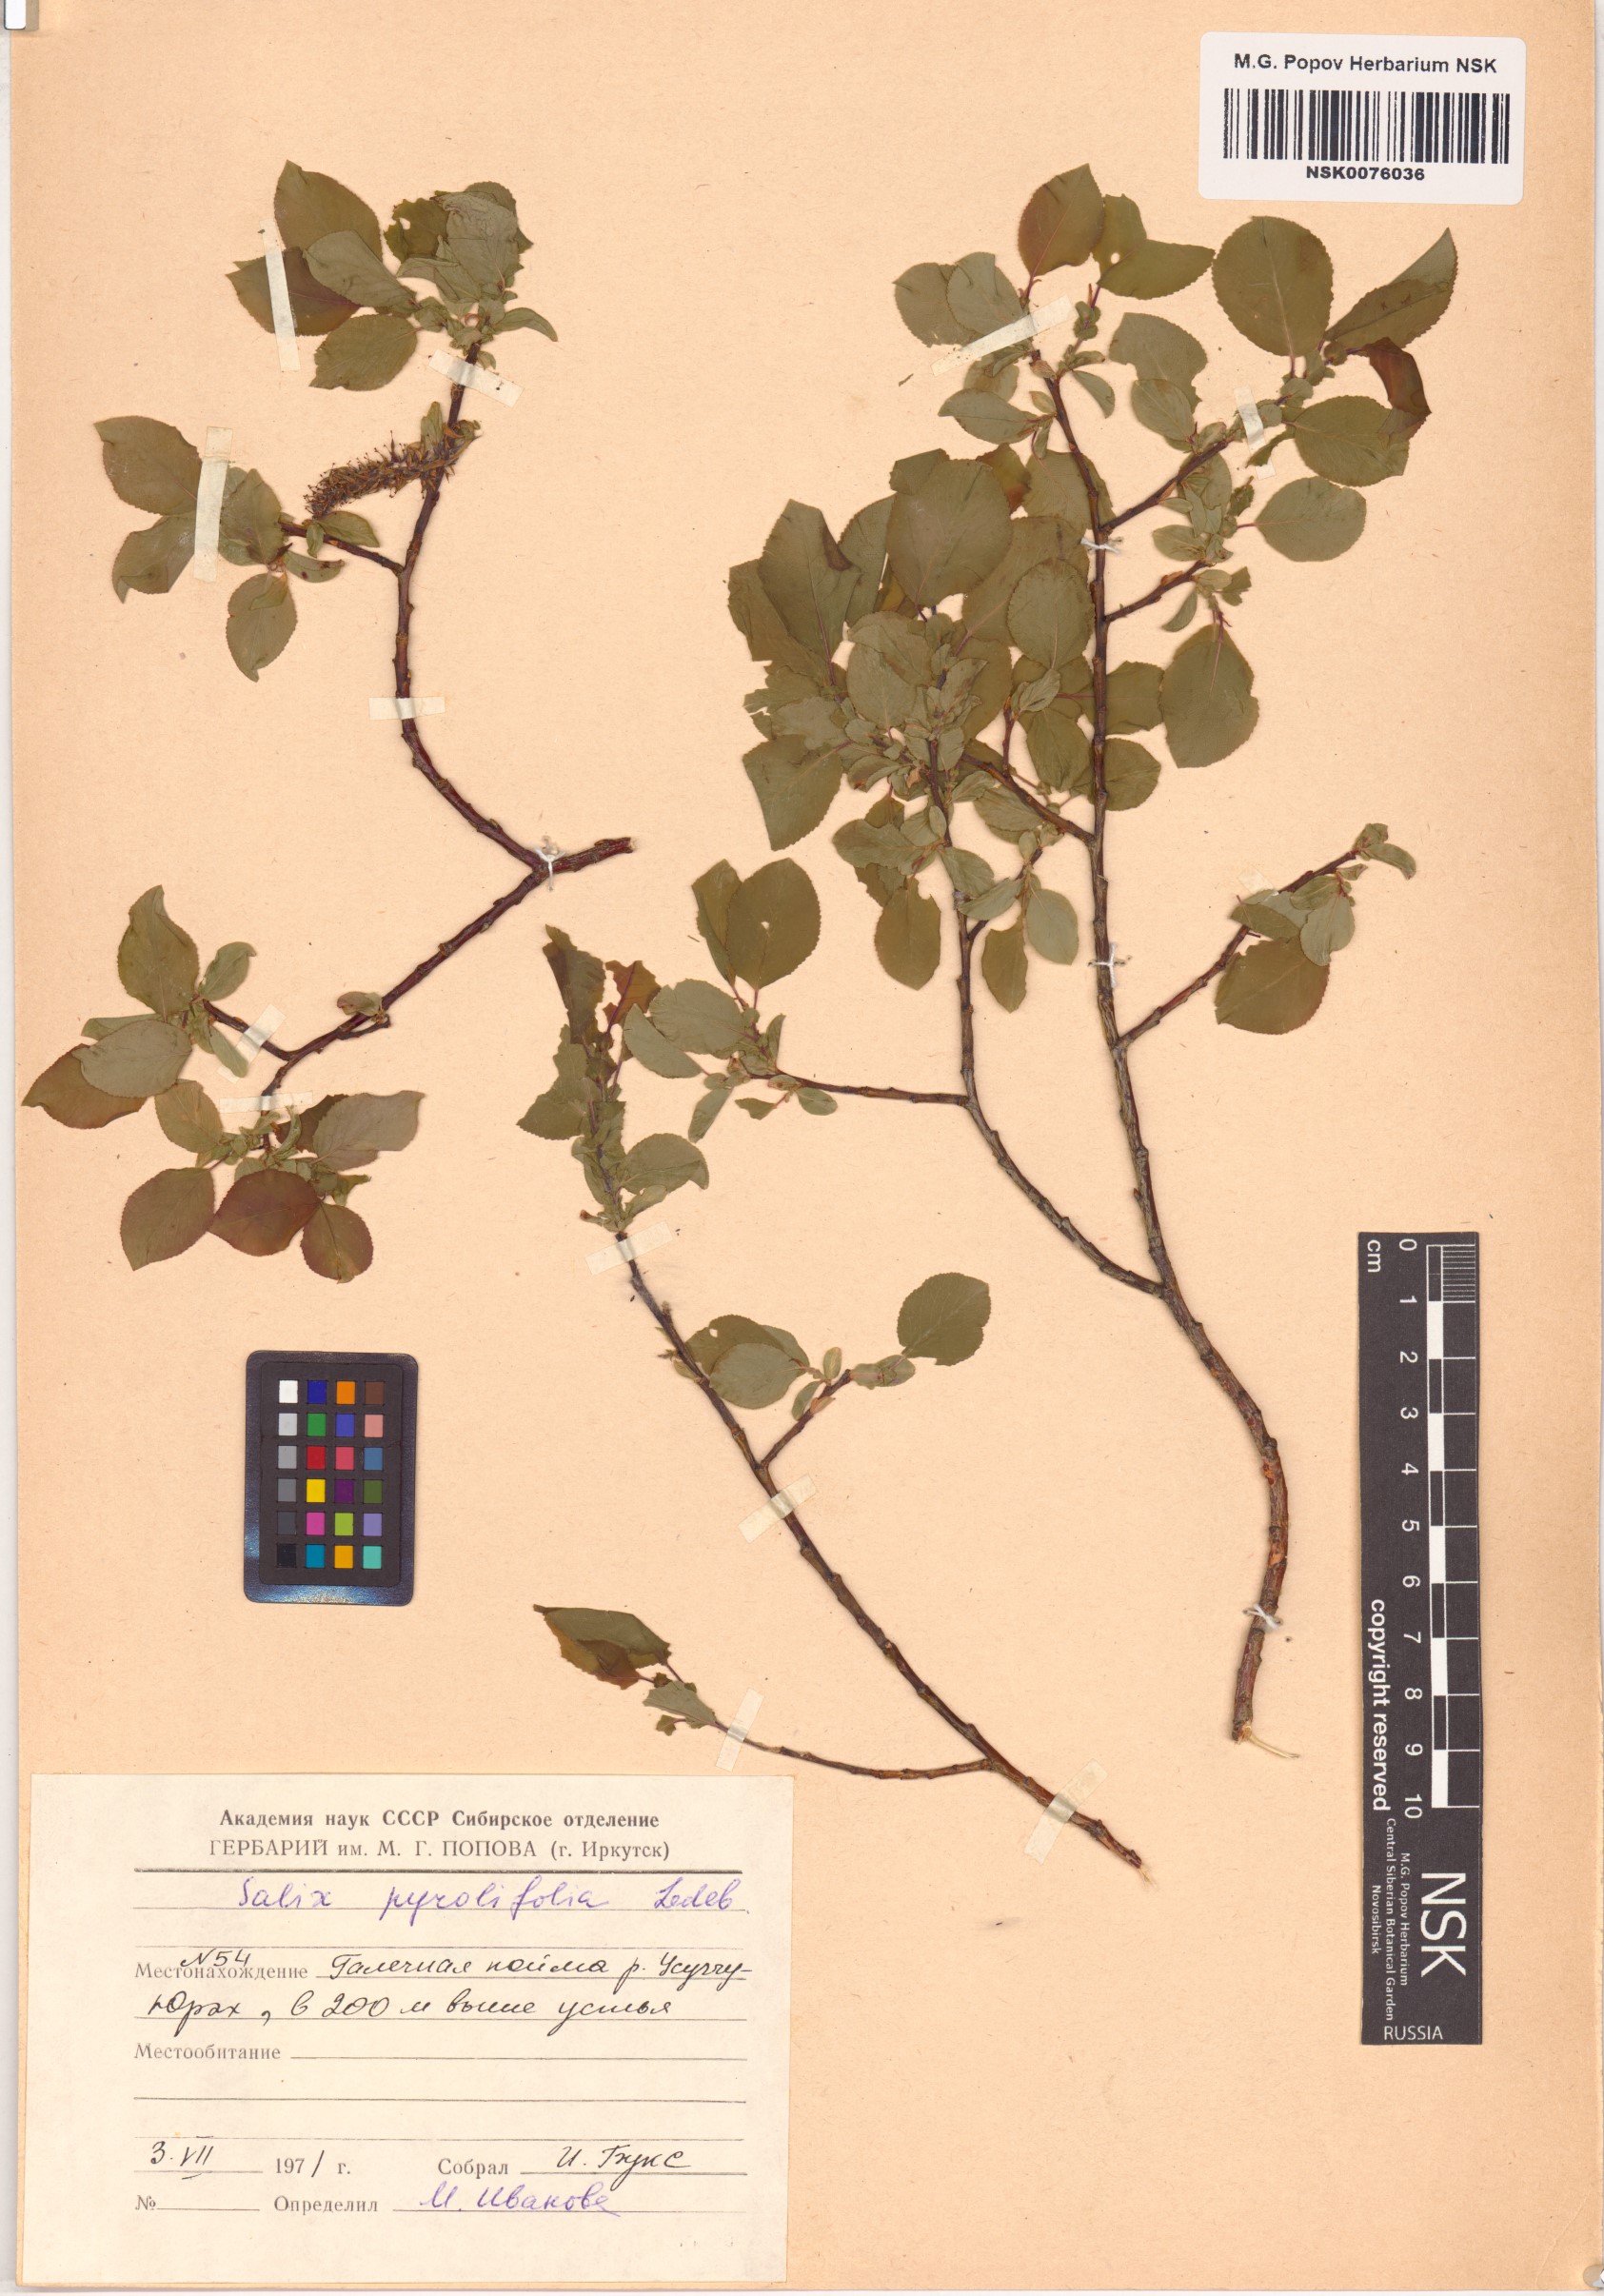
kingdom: Plantae
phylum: Tracheophyta
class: Magnoliopsida
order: Malpighiales
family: Salicaceae
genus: Salix
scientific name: Salix pyrolifolia
